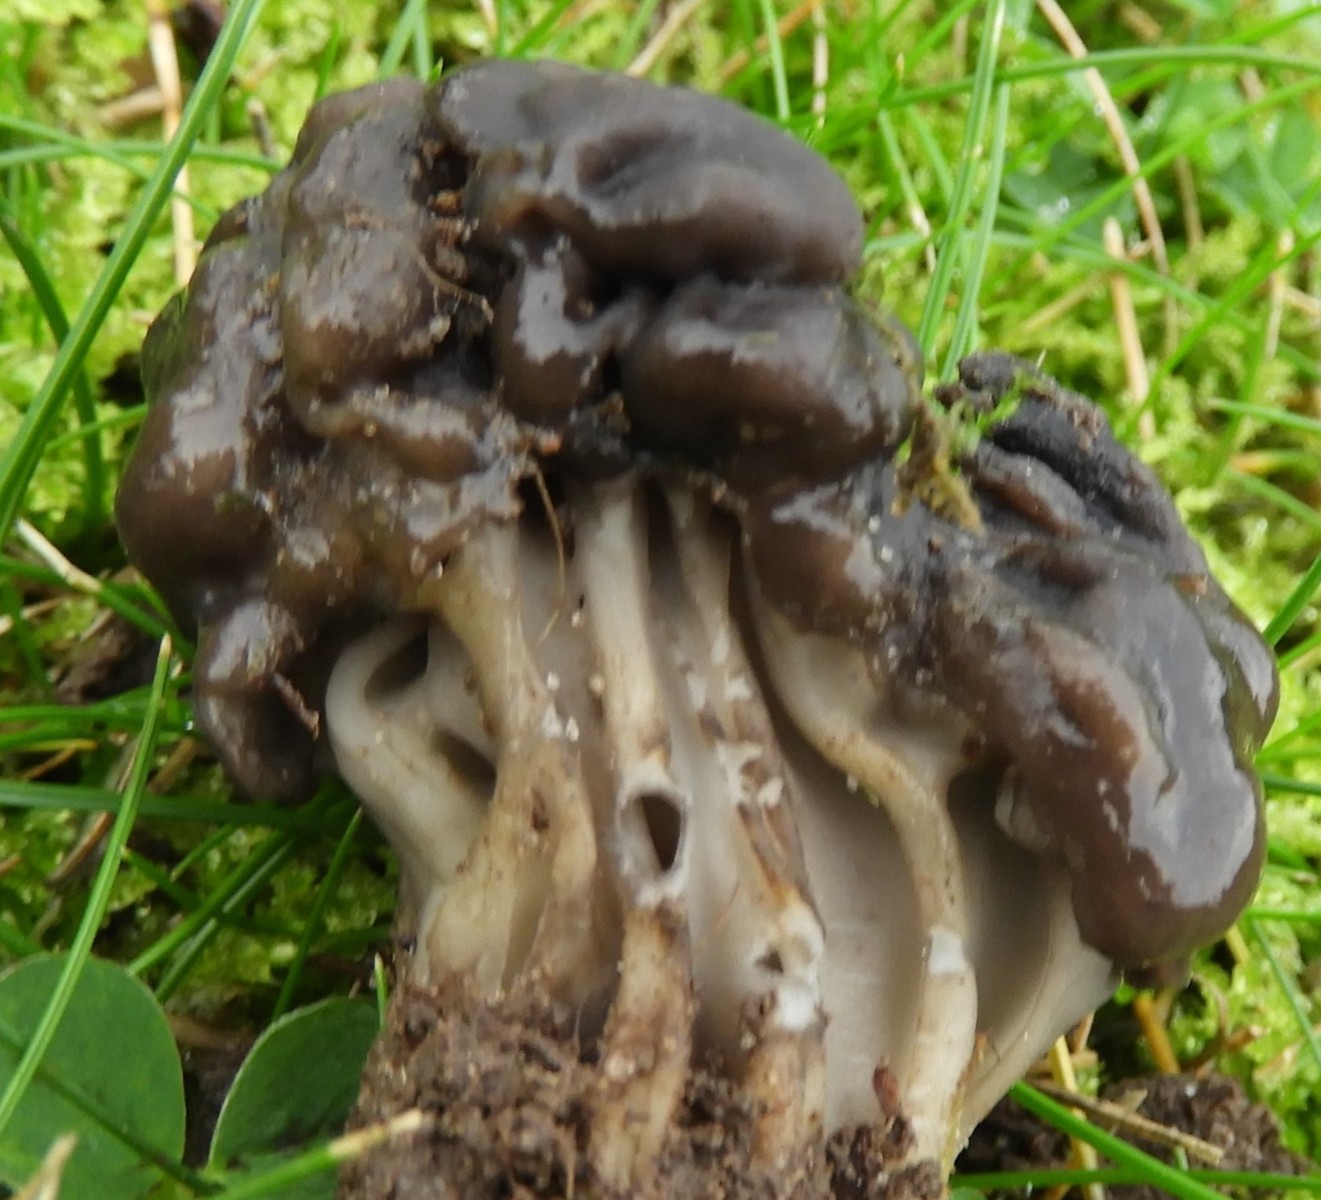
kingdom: Fungi
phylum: Ascomycota
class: Pezizomycetes
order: Pezizales
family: Helvellaceae
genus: Helvella
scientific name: Helvella lacunosa
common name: grubet foldhat
